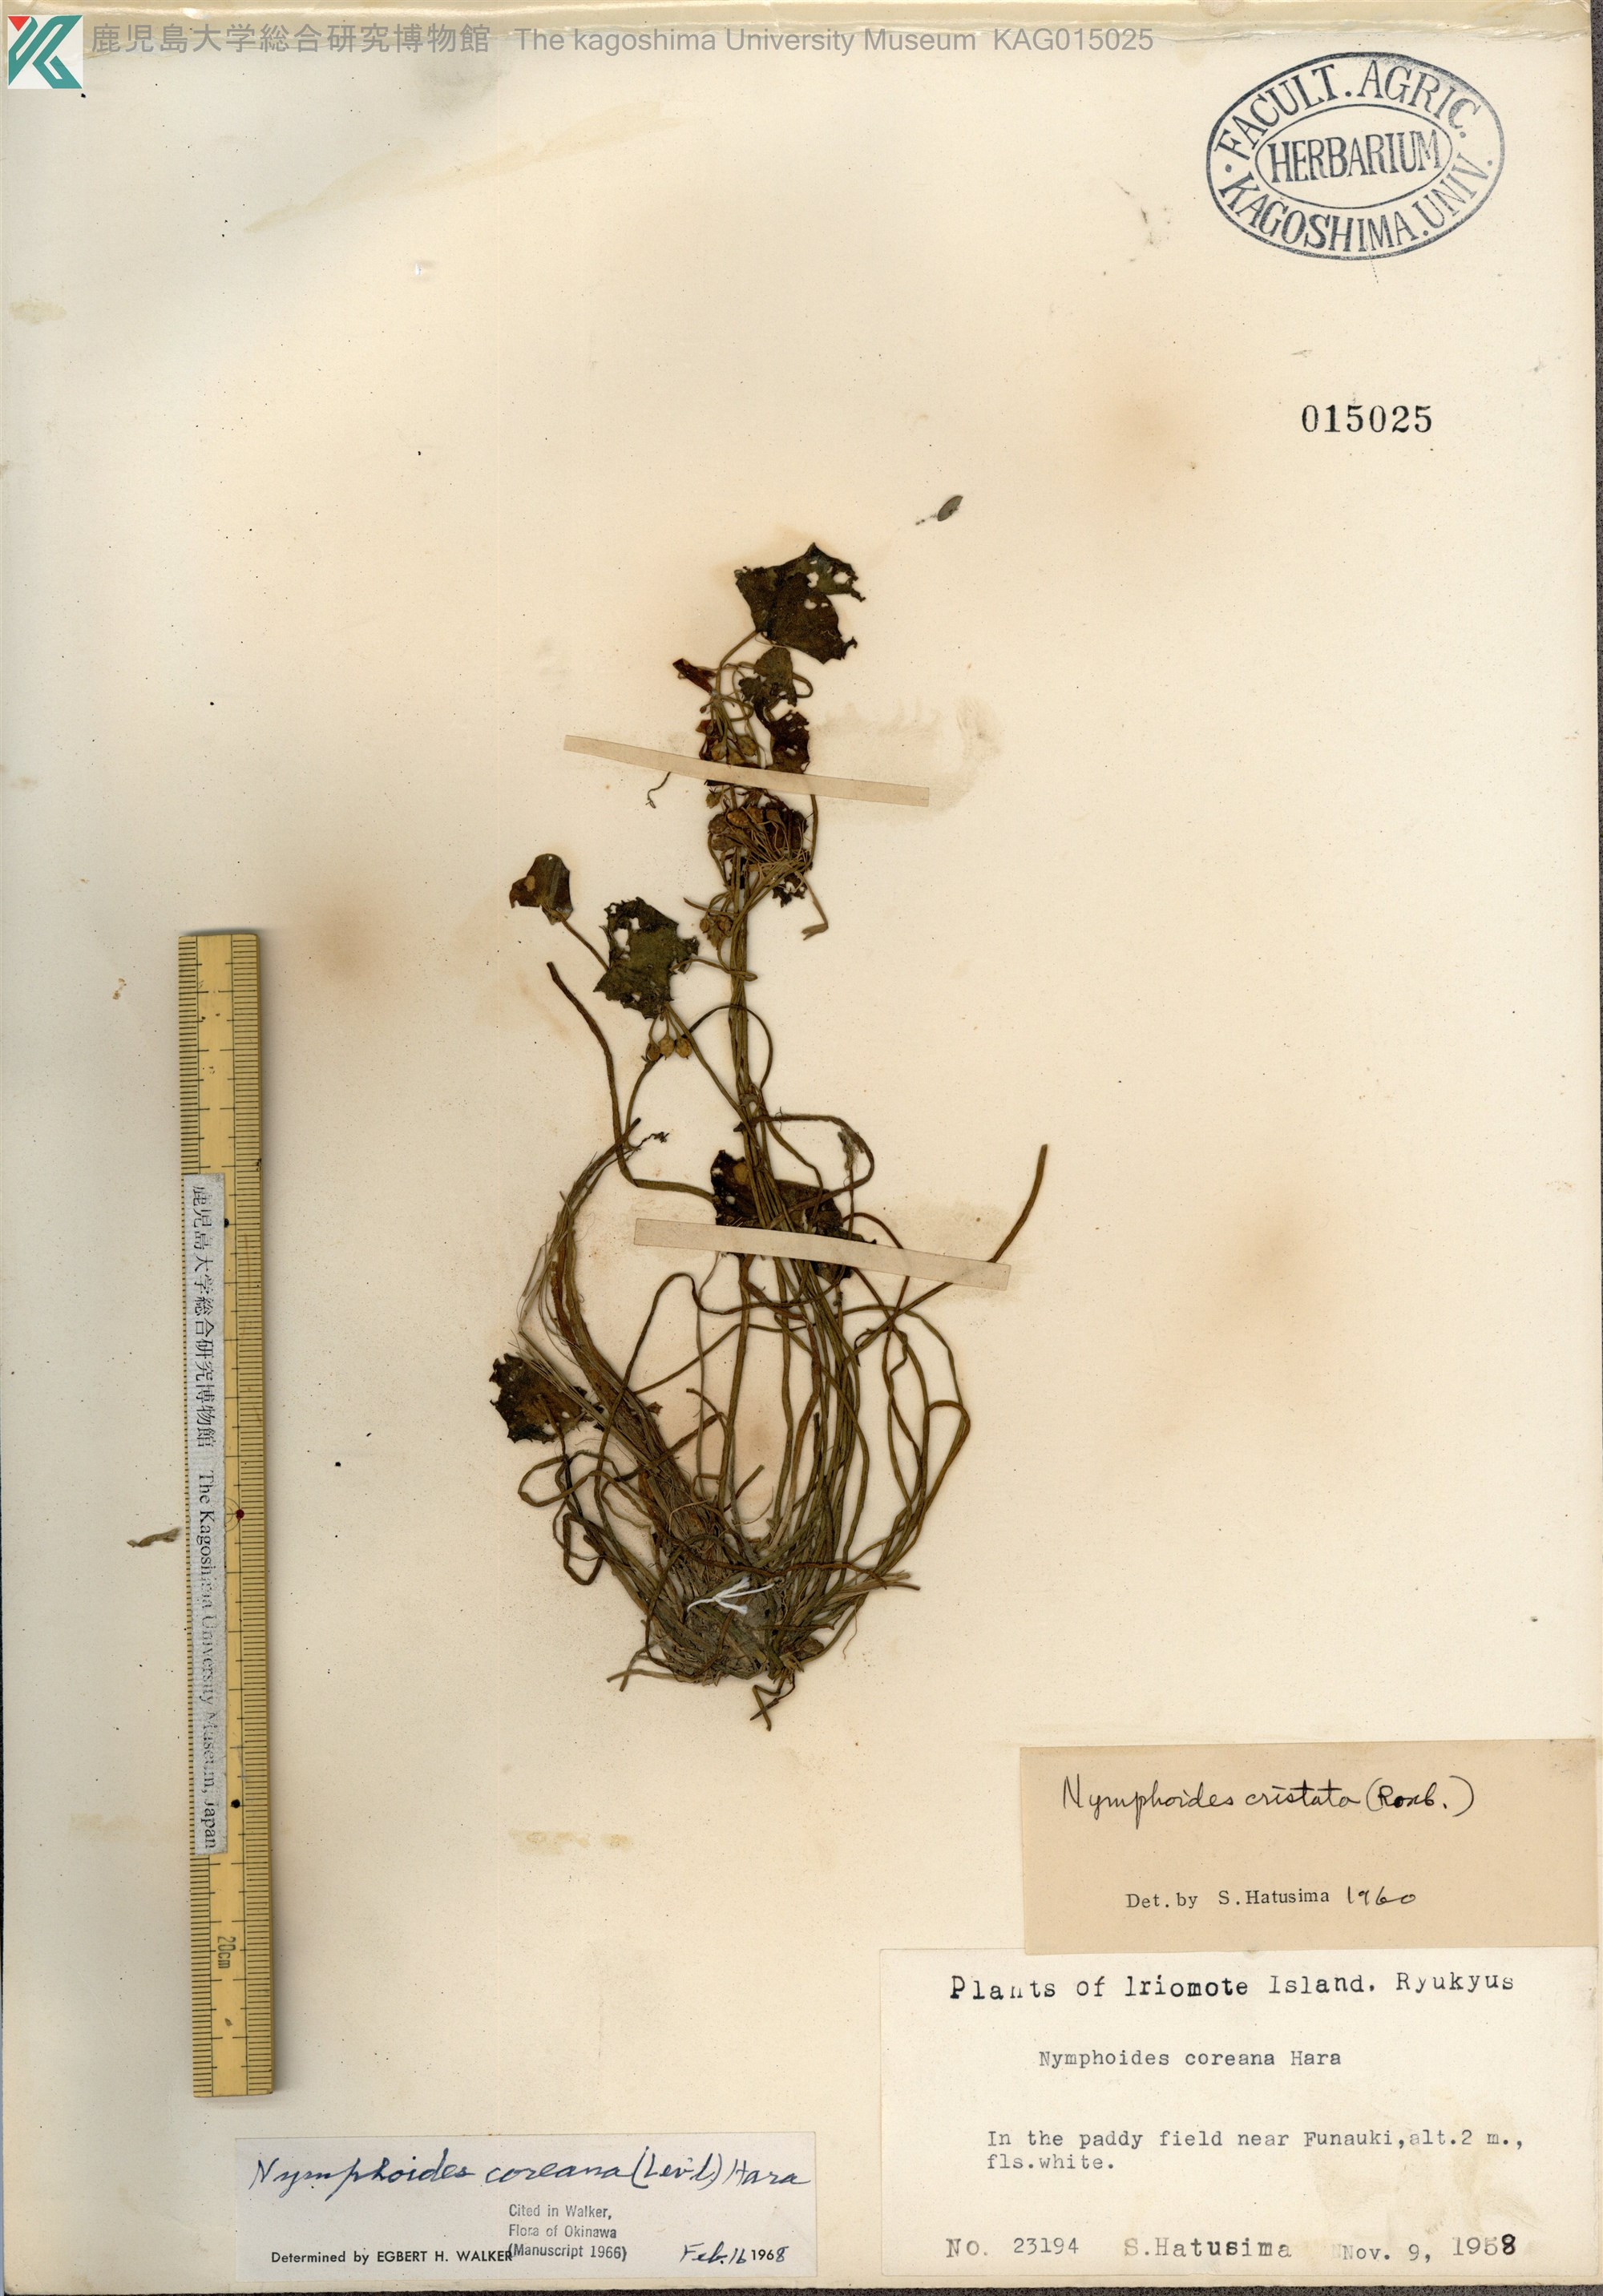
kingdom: Plantae
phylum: Tracheophyta
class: Magnoliopsida
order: Asterales
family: Menyanthaceae
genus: Nymphoides
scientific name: Nymphoides coreana
